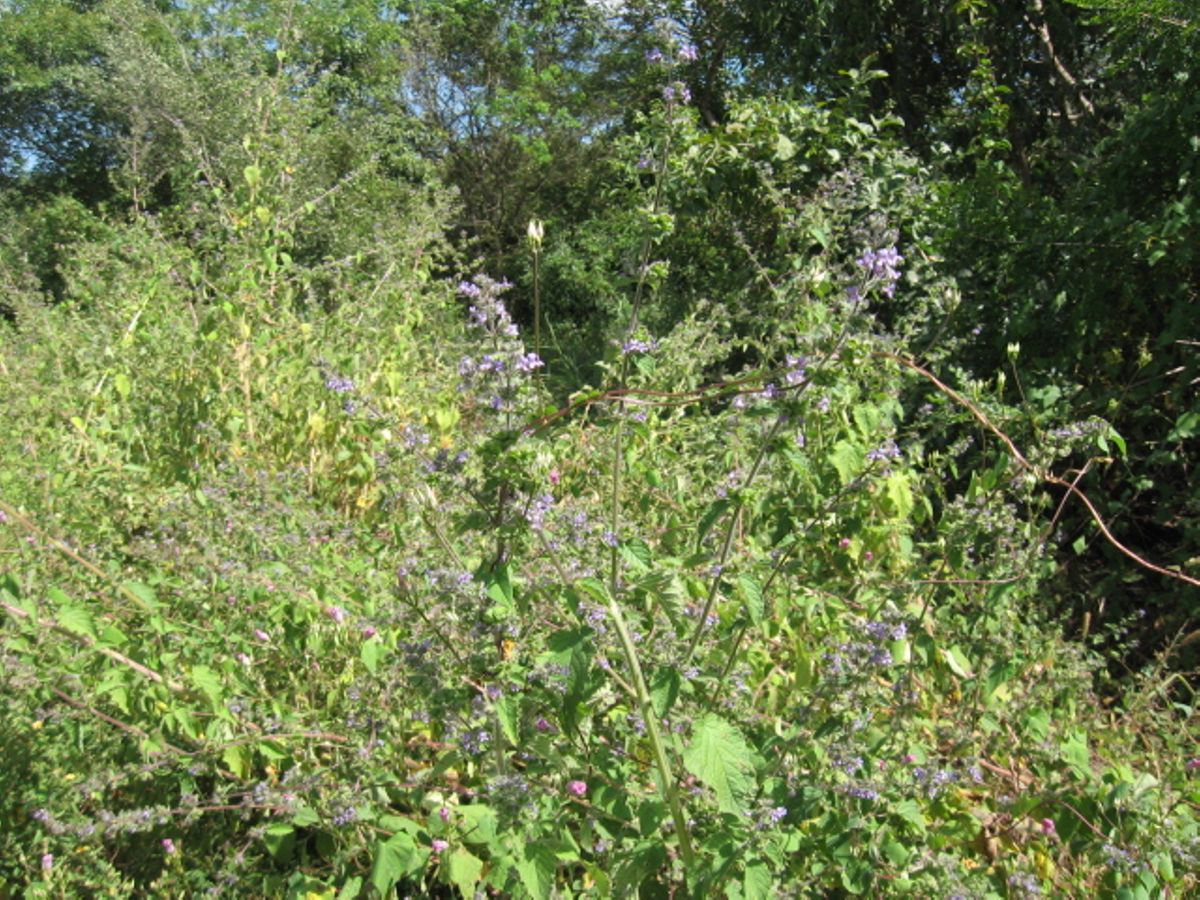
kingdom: Plantae
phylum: Tracheophyta
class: Magnoliopsida
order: Lamiales
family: Lamiaceae
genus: Mesosphaerum
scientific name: Mesosphaerum suaveolens
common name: Pignut
